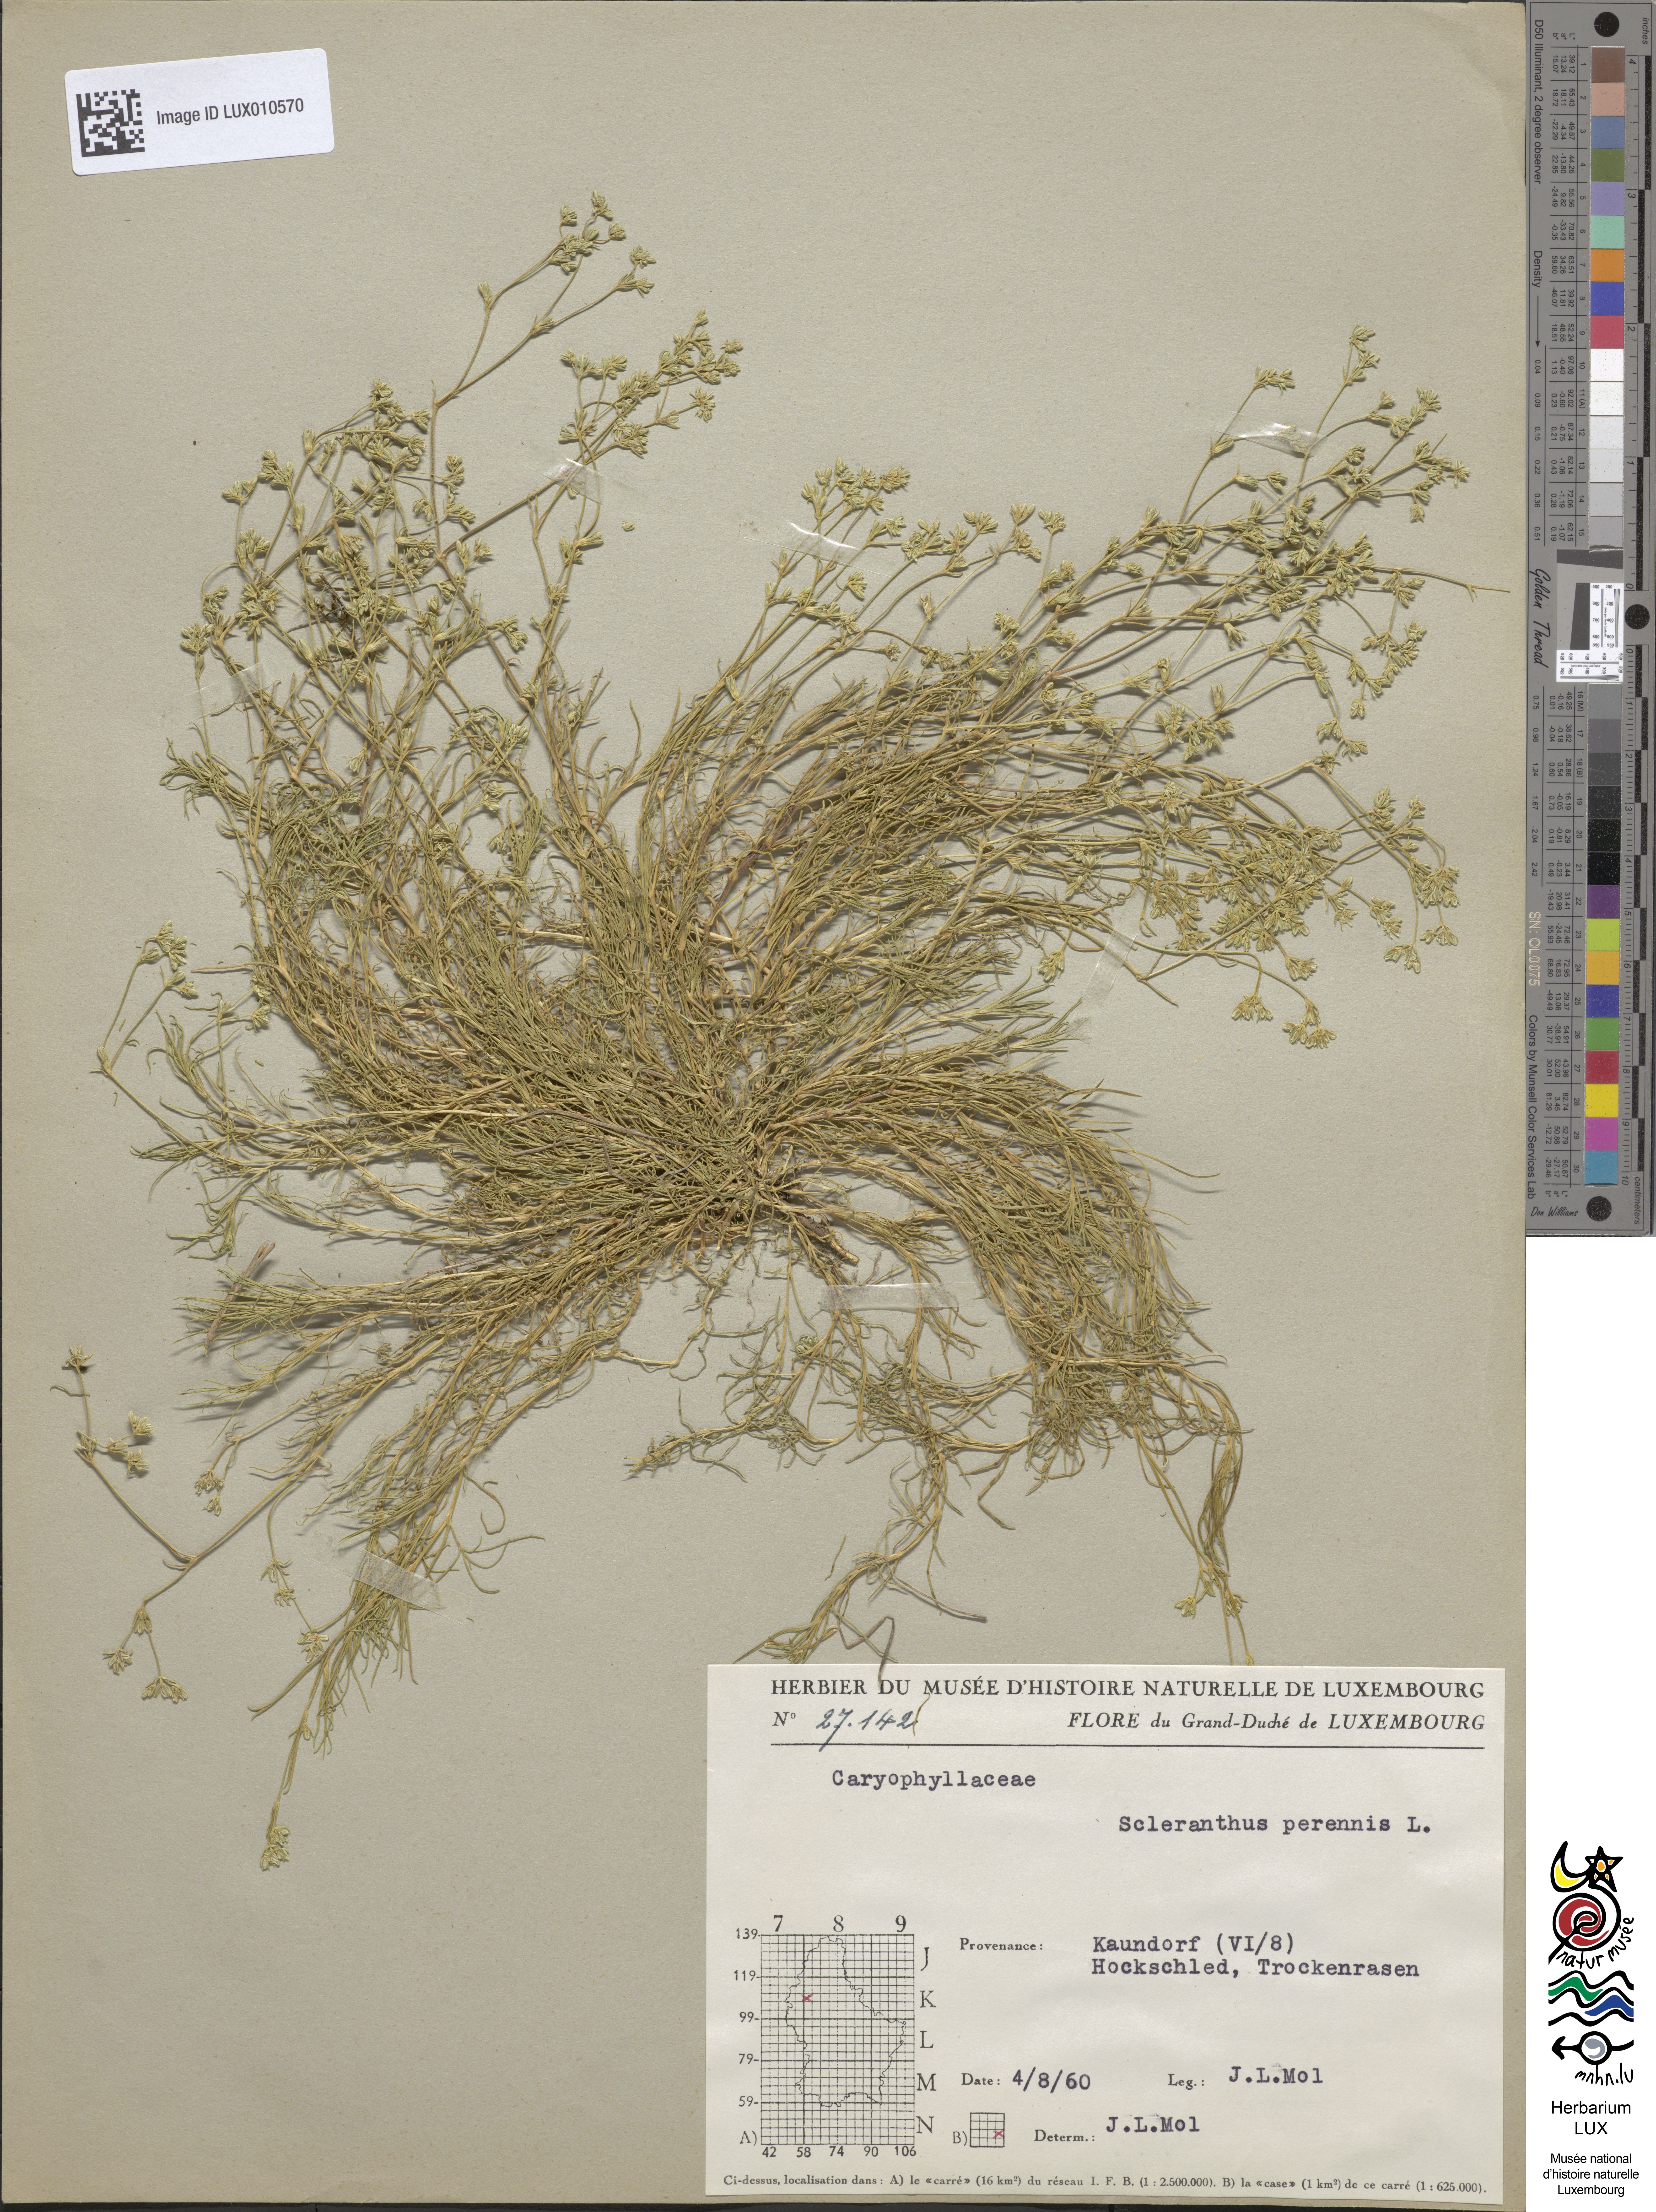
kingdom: Plantae
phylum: Tracheophyta
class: Magnoliopsida
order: Caryophyllales
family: Caryophyllaceae
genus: Scleranthus
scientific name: Scleranthus perennis
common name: Perennial knawel
